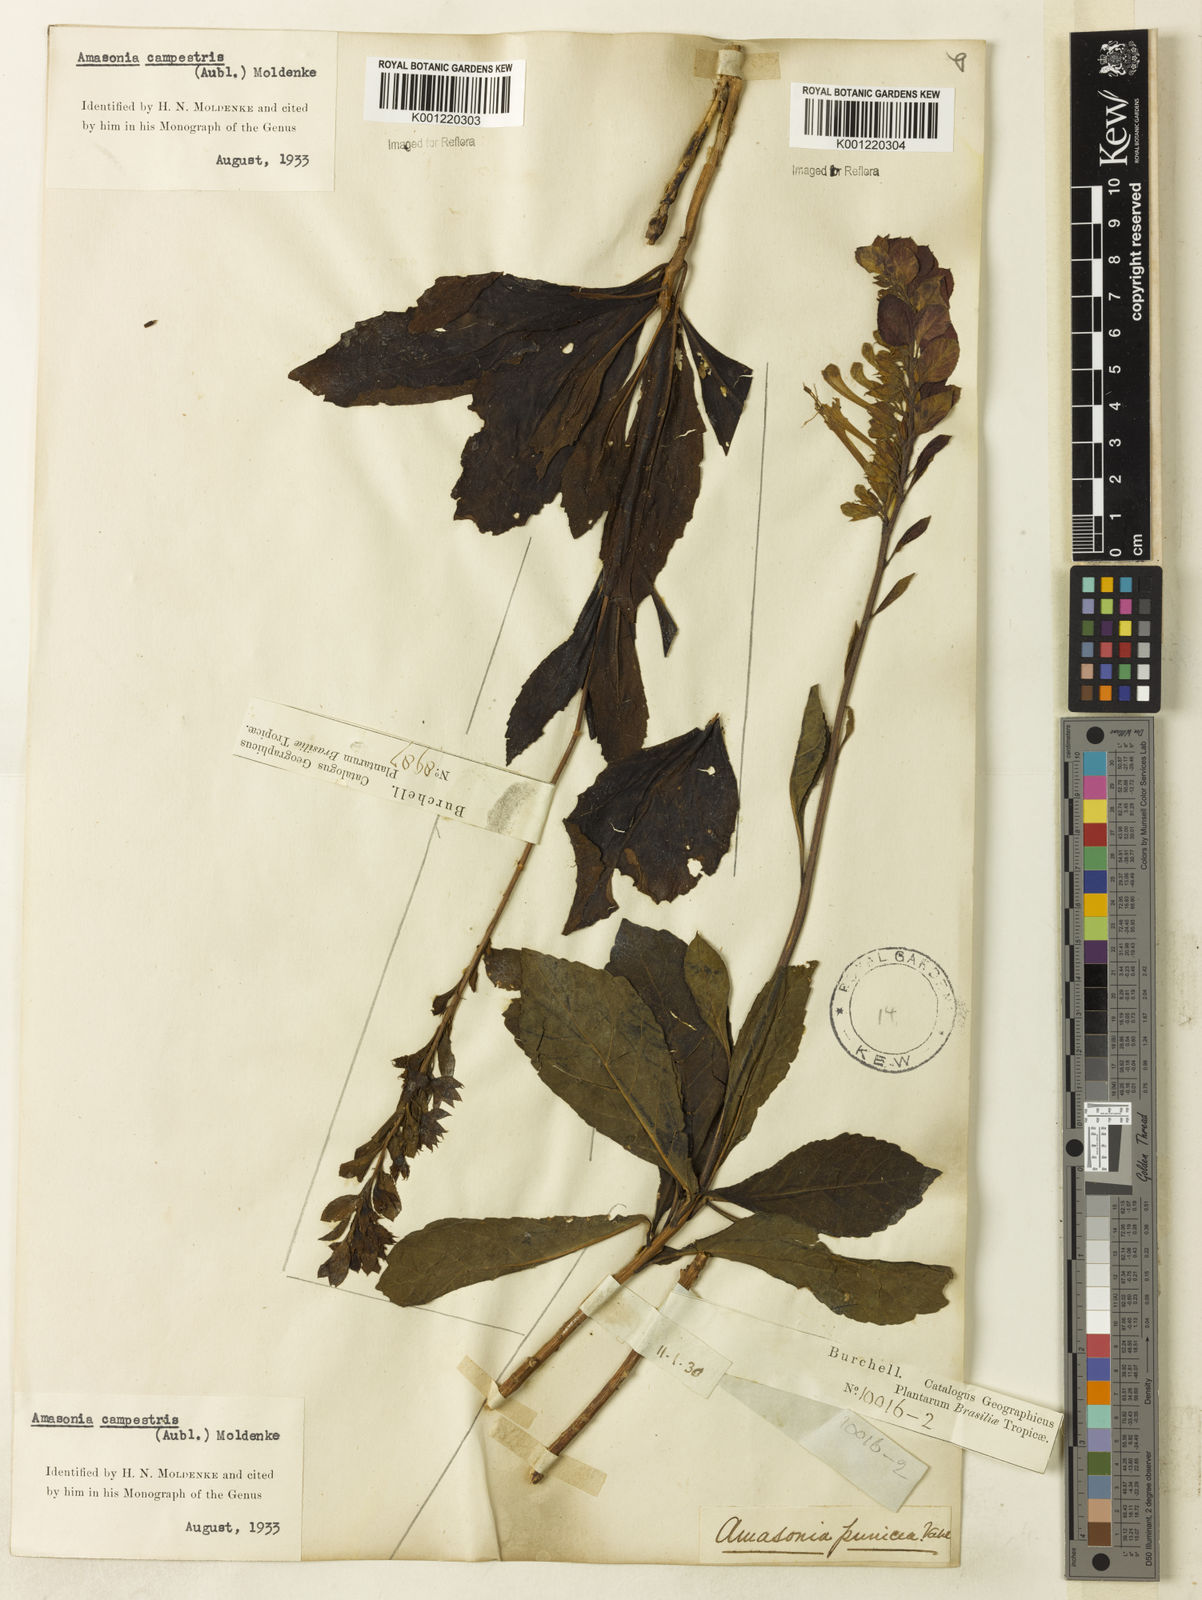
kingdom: Plantae
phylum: Tracheophyta
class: Magnoliopsida
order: Lamiales
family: Lamiaceae
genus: Amasonia
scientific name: Amasonia campestris
